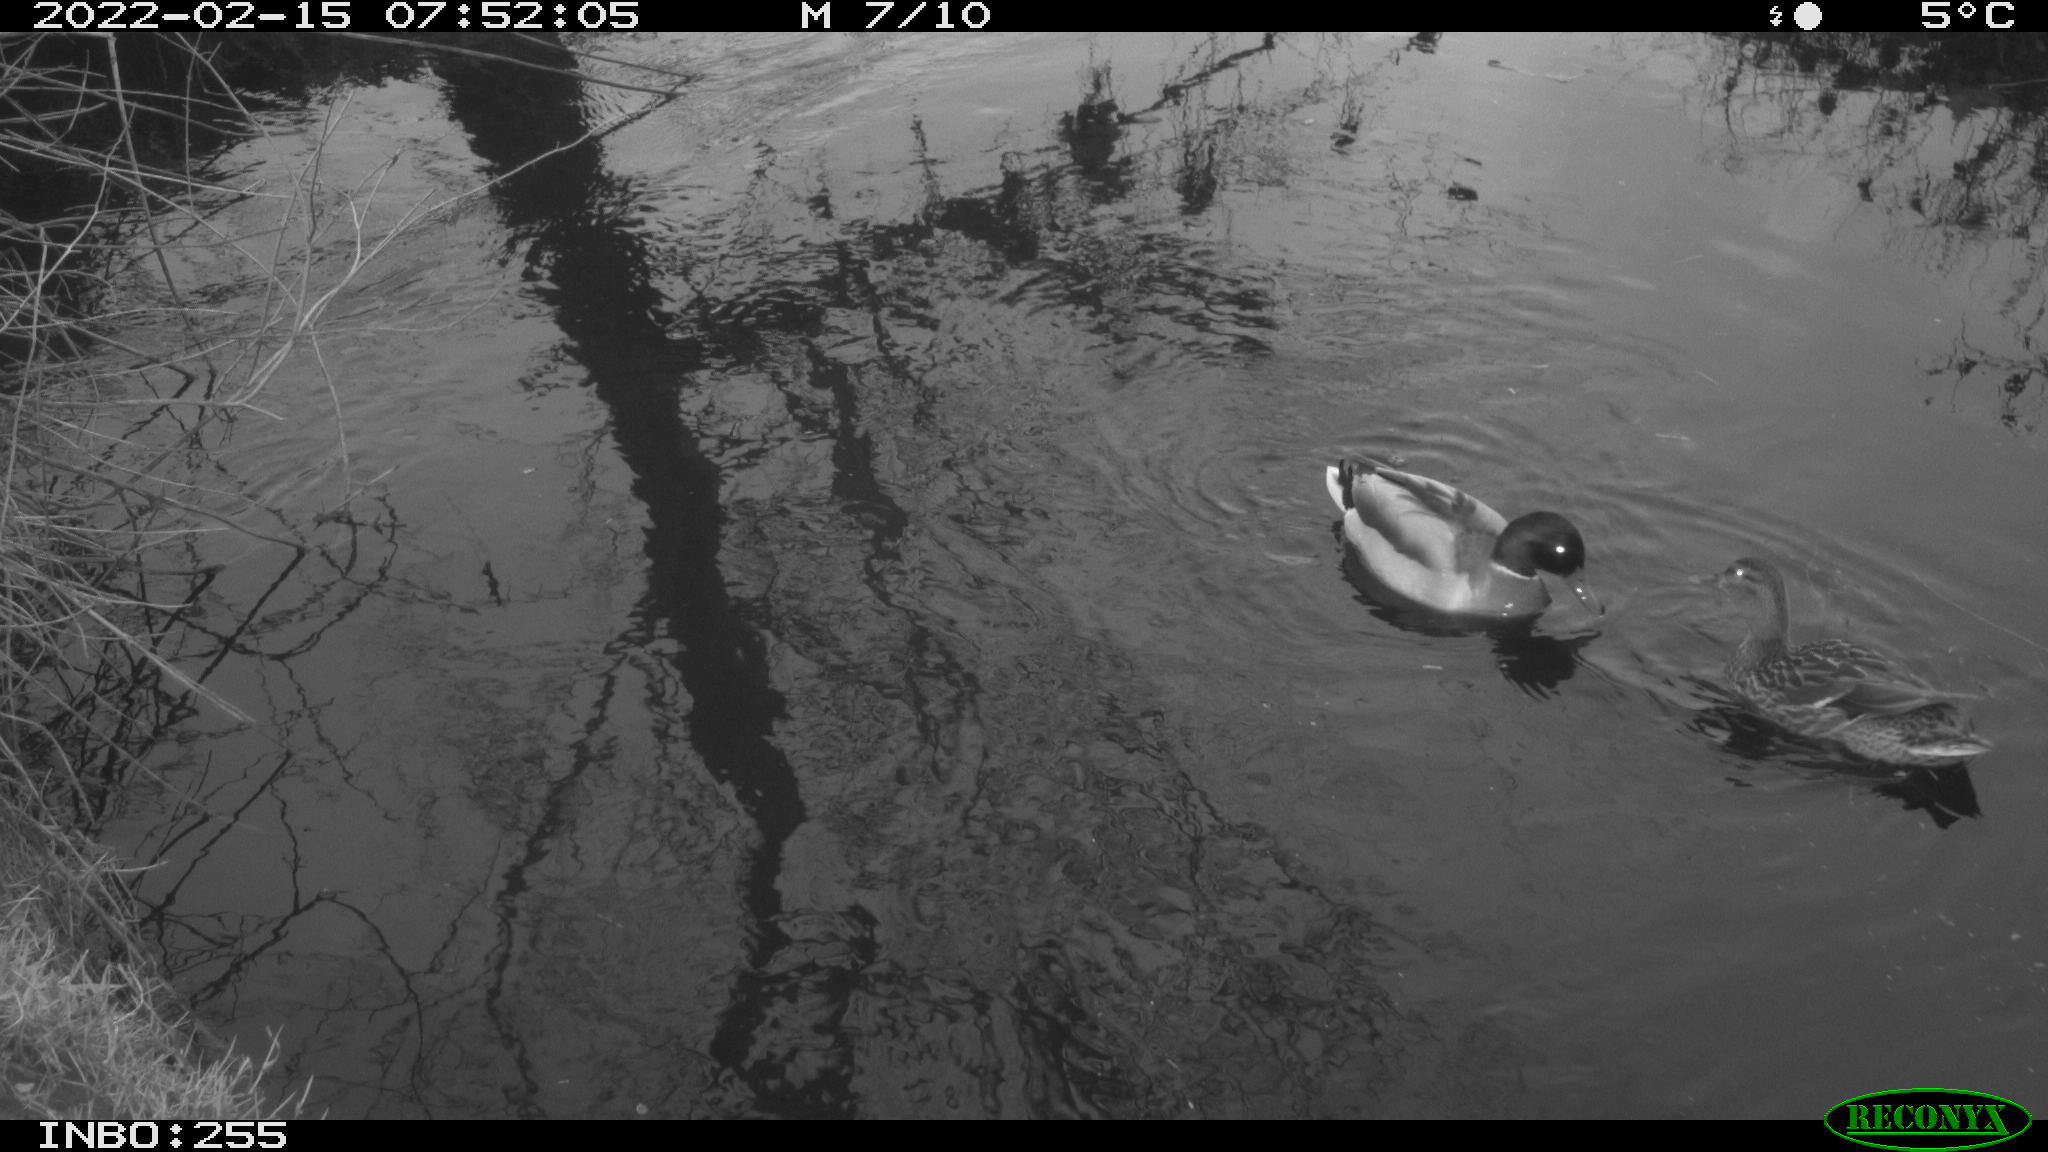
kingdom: Animalia
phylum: Chordata
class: Aves
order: Anseriformes
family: Anatidae
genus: Mareca
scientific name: Mareca strepera
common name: Gadwall
